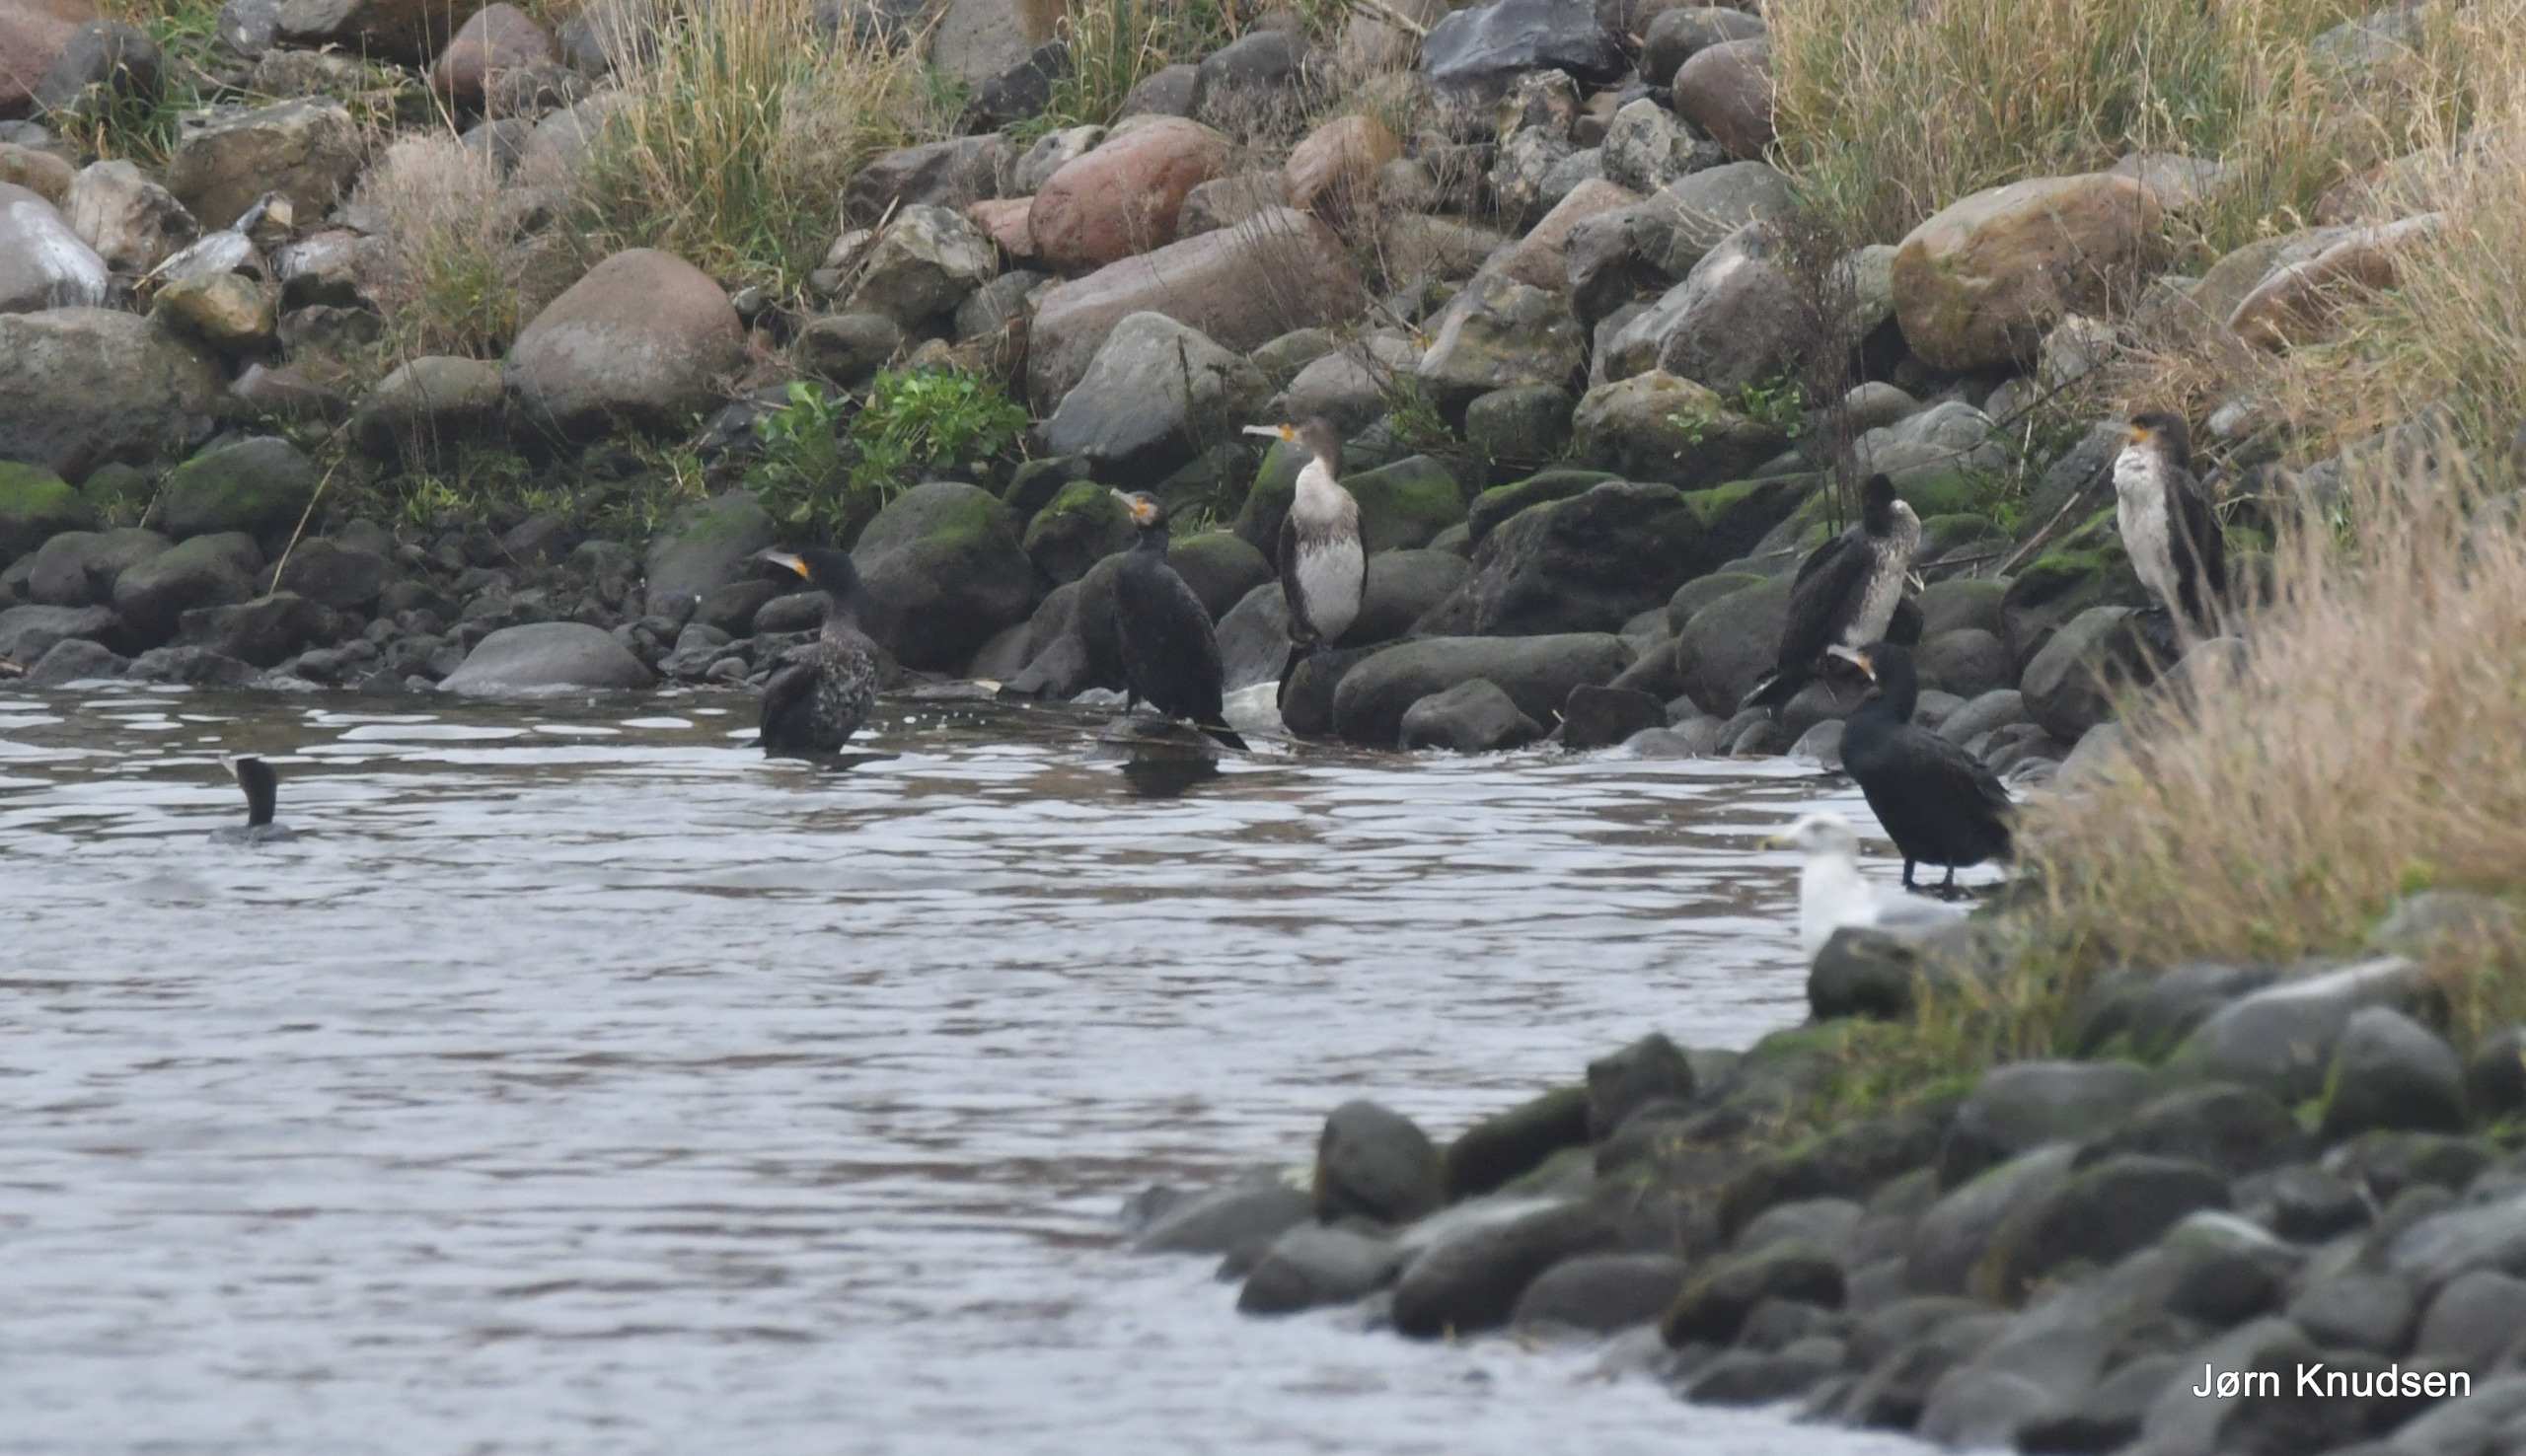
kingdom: Animalia
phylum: Chordata
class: Aves
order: Suliformes
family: Phalacrocoracidae
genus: Phalacrocorax
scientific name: Phalacrocorax carbo
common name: Mellemskarv
